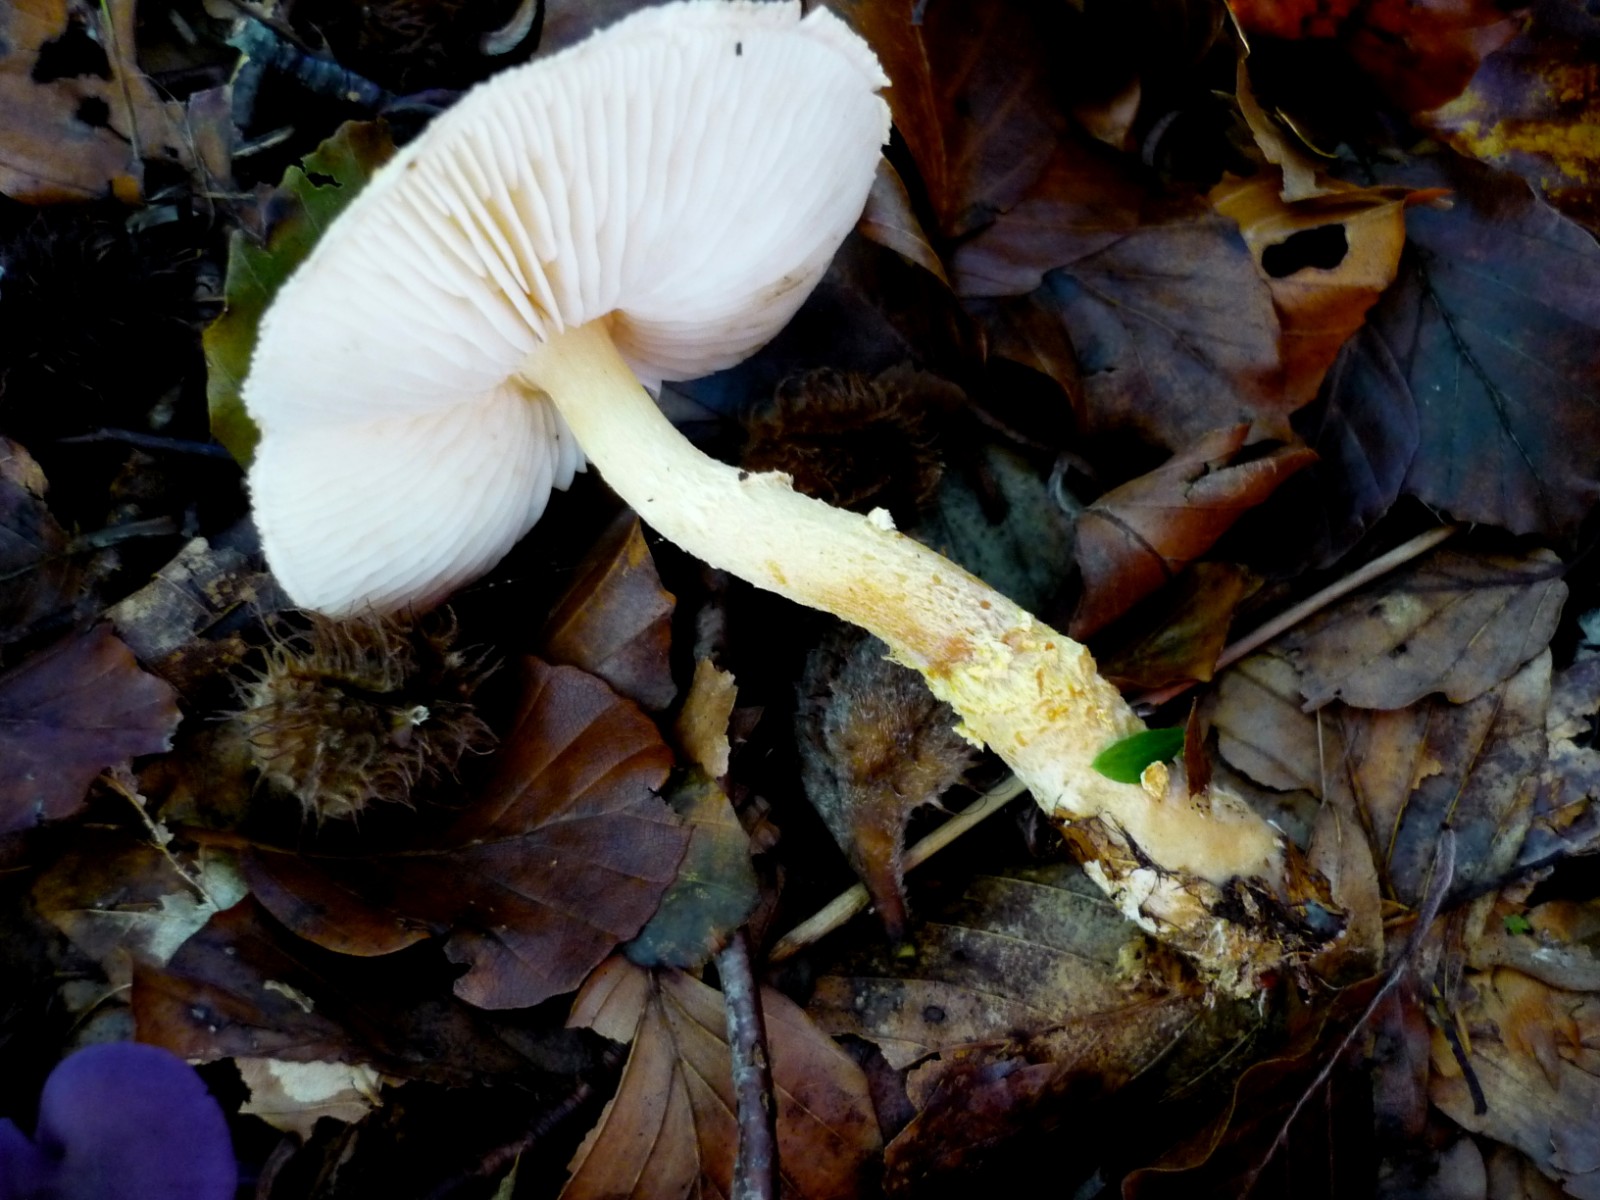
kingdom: Fungi
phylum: Basidiomycota
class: Agaricomycetes
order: Agaricales
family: Agaricaceae
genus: Lepiota
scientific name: Lepiota magnispora
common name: gulfnugget parasolhat
